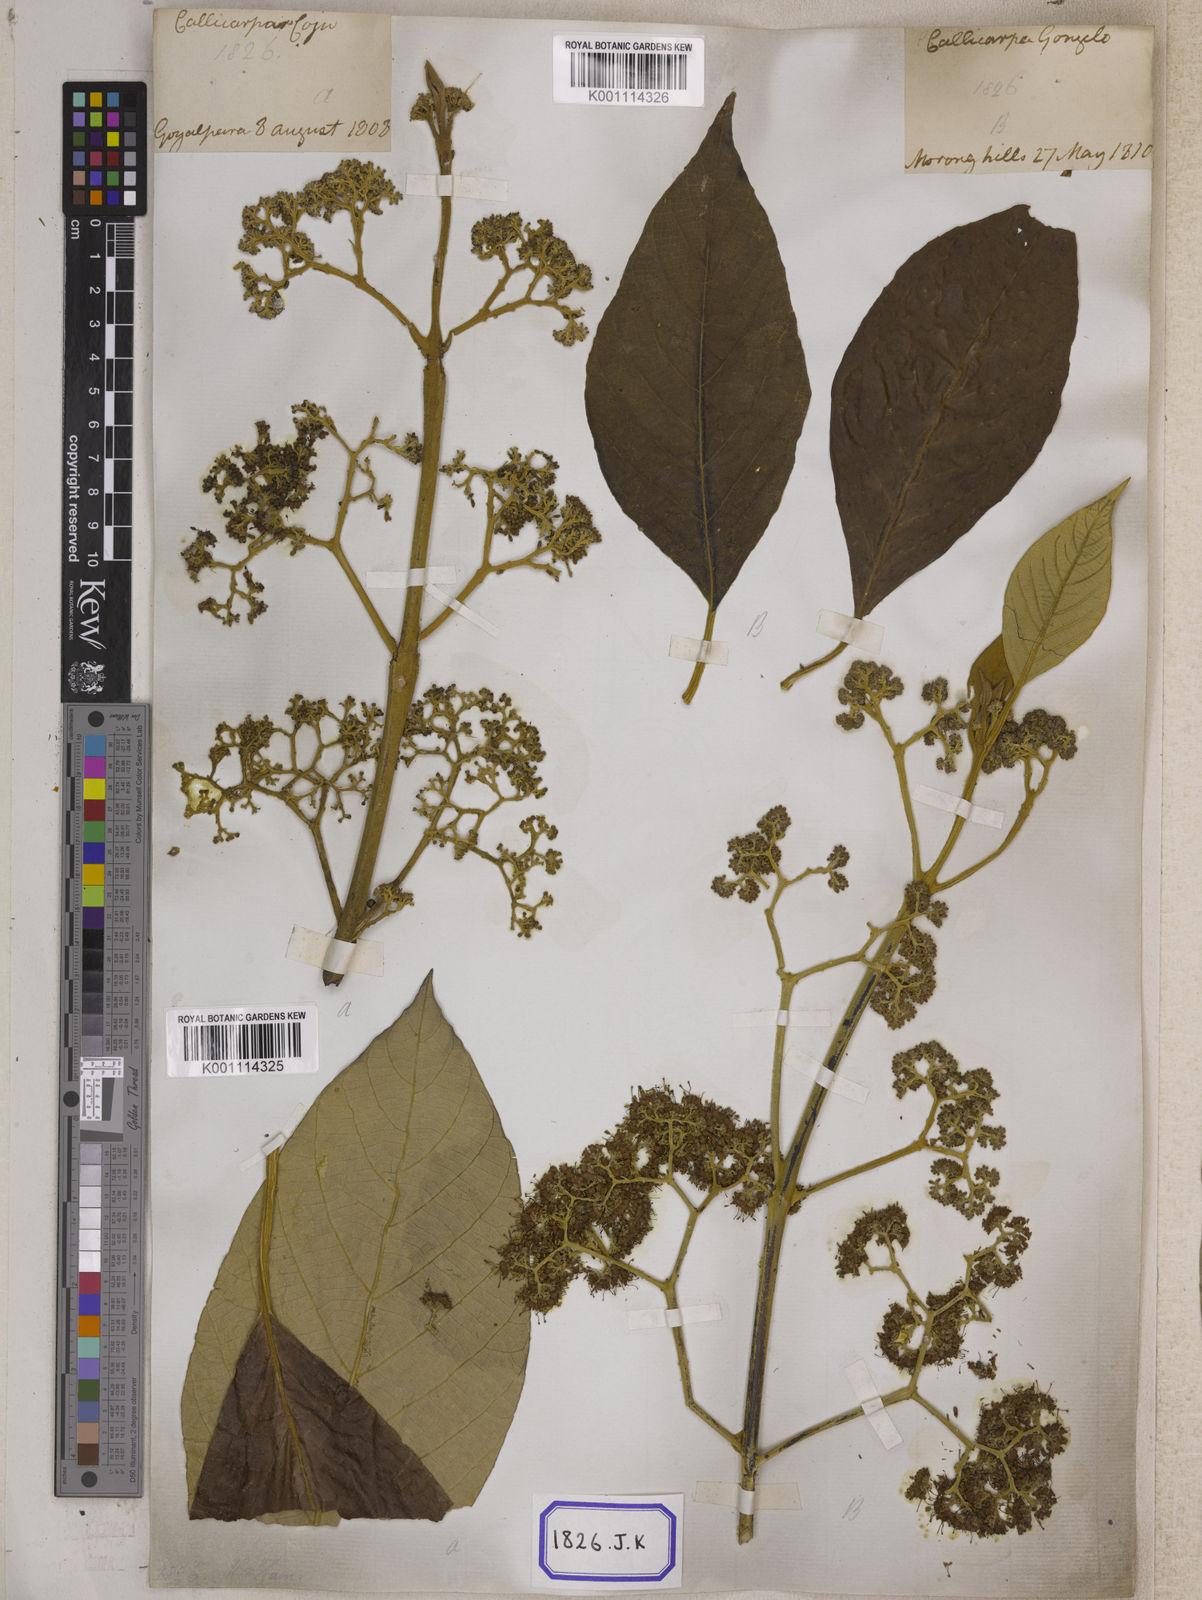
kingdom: Plantae
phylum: Tracheophyta
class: Magnoliopsida
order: Lamiales
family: Lamiaceae
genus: Callicarpa
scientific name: Callicarpa arborea
